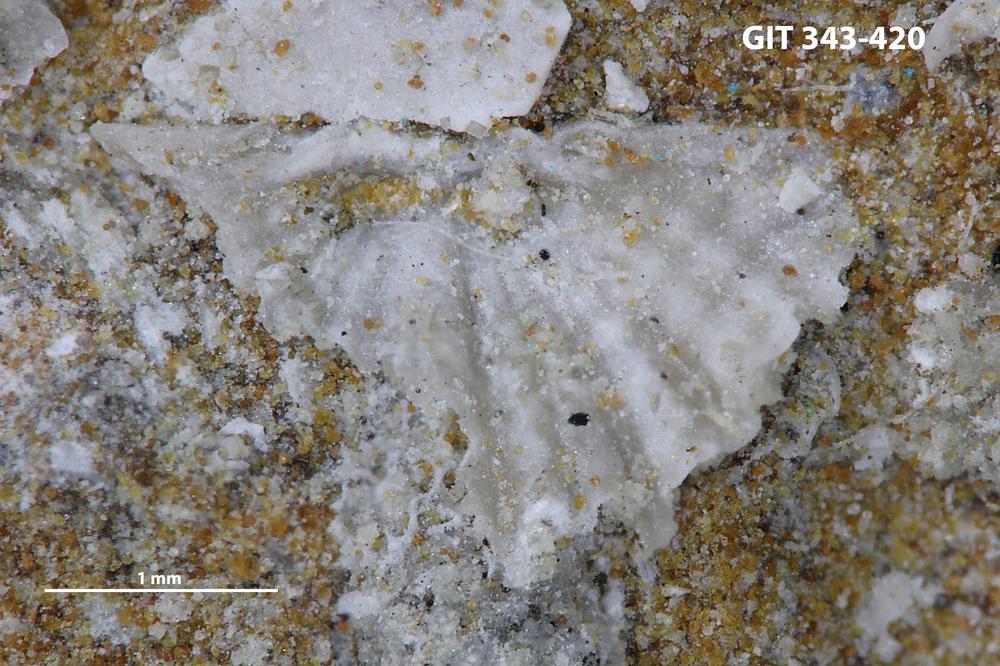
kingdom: Animalia
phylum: Brachiopoda
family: Kullervoidae
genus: Kullervo
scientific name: Kullervo
